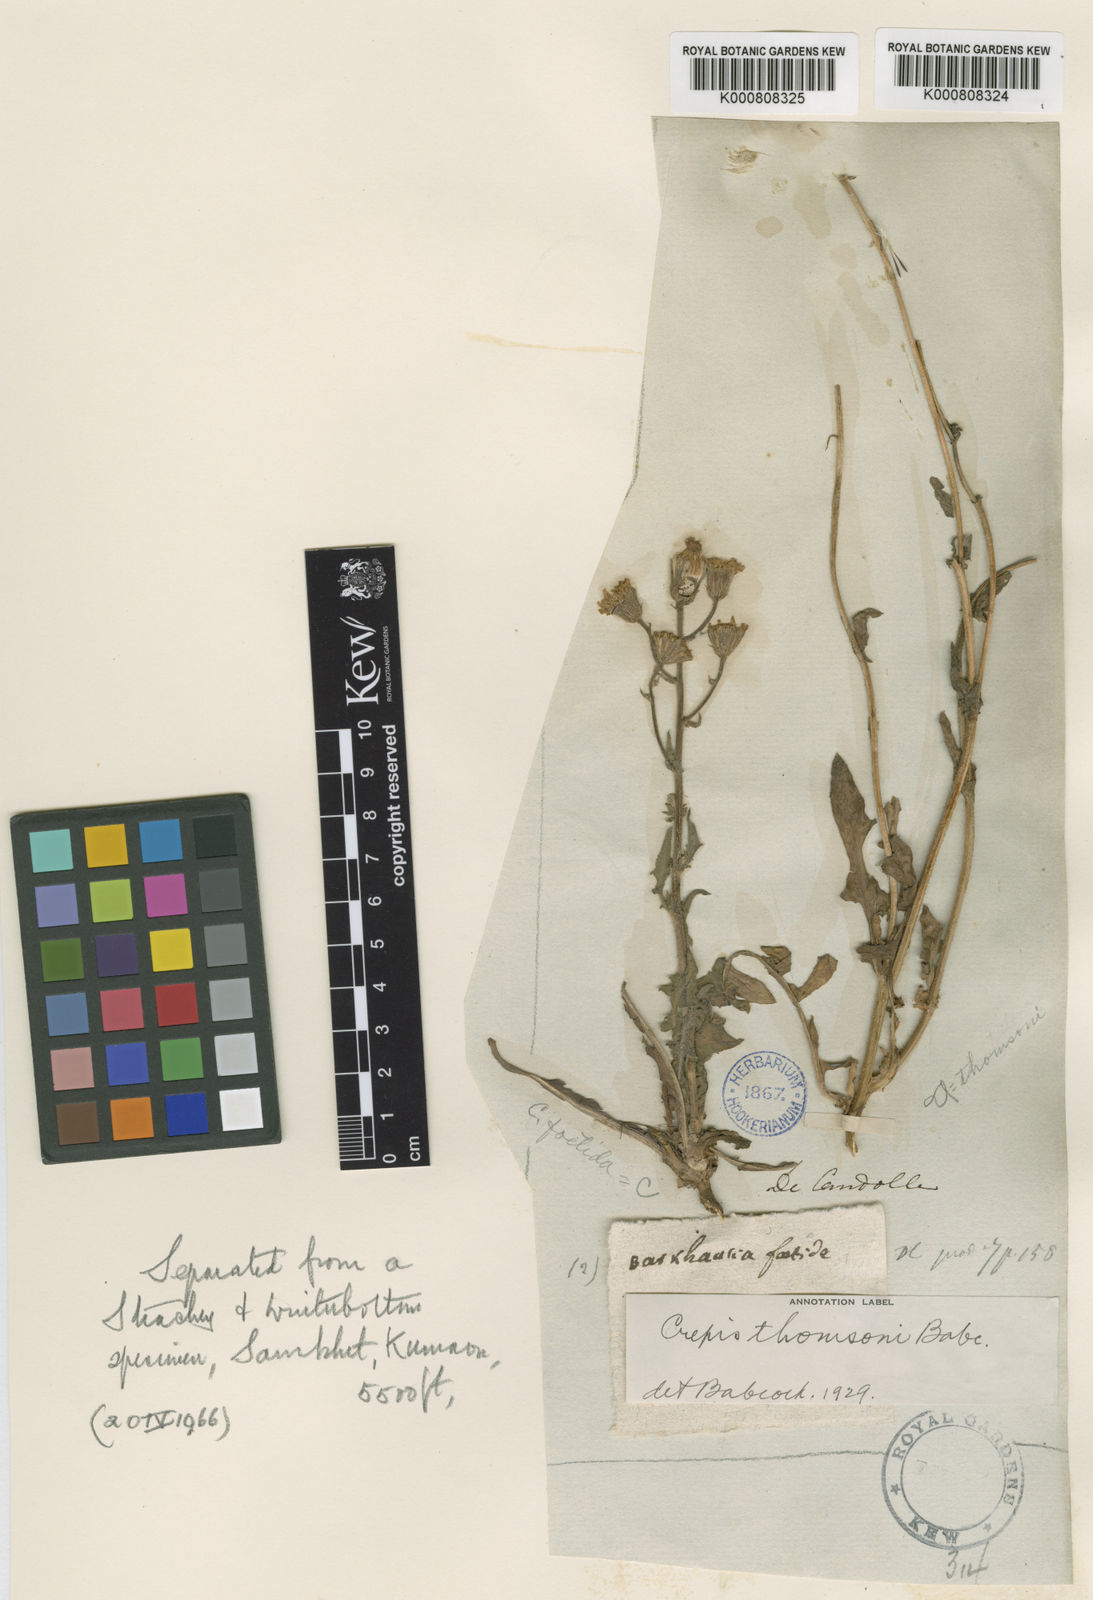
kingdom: Plantae
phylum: Tracheophyta
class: Magnoliopsida
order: Asterales
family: Asteraceae
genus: Crepis
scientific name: Crepis
